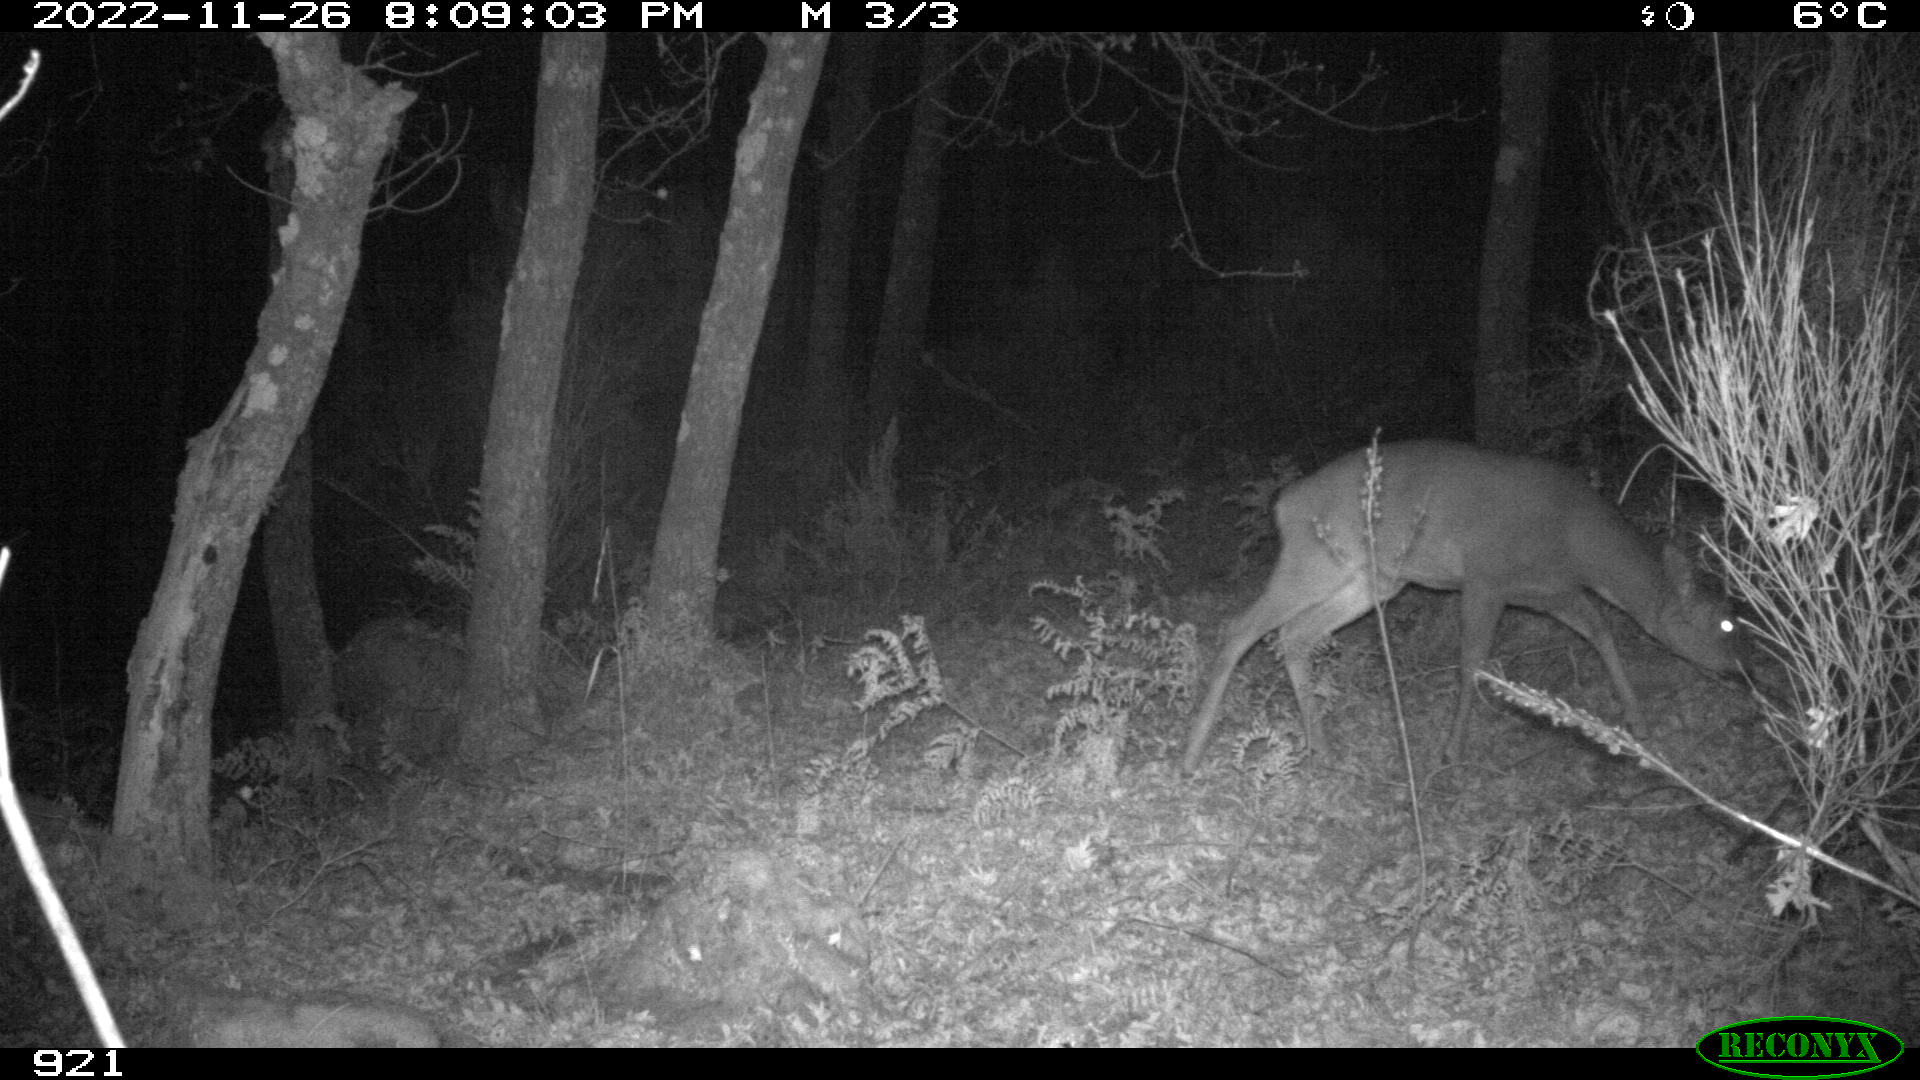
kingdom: Animalia
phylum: Chordata
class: Mammalia
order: Artiodactyla
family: Cervidae
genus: Capreolus
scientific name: Capreolus capreolus
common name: Western roe deer
